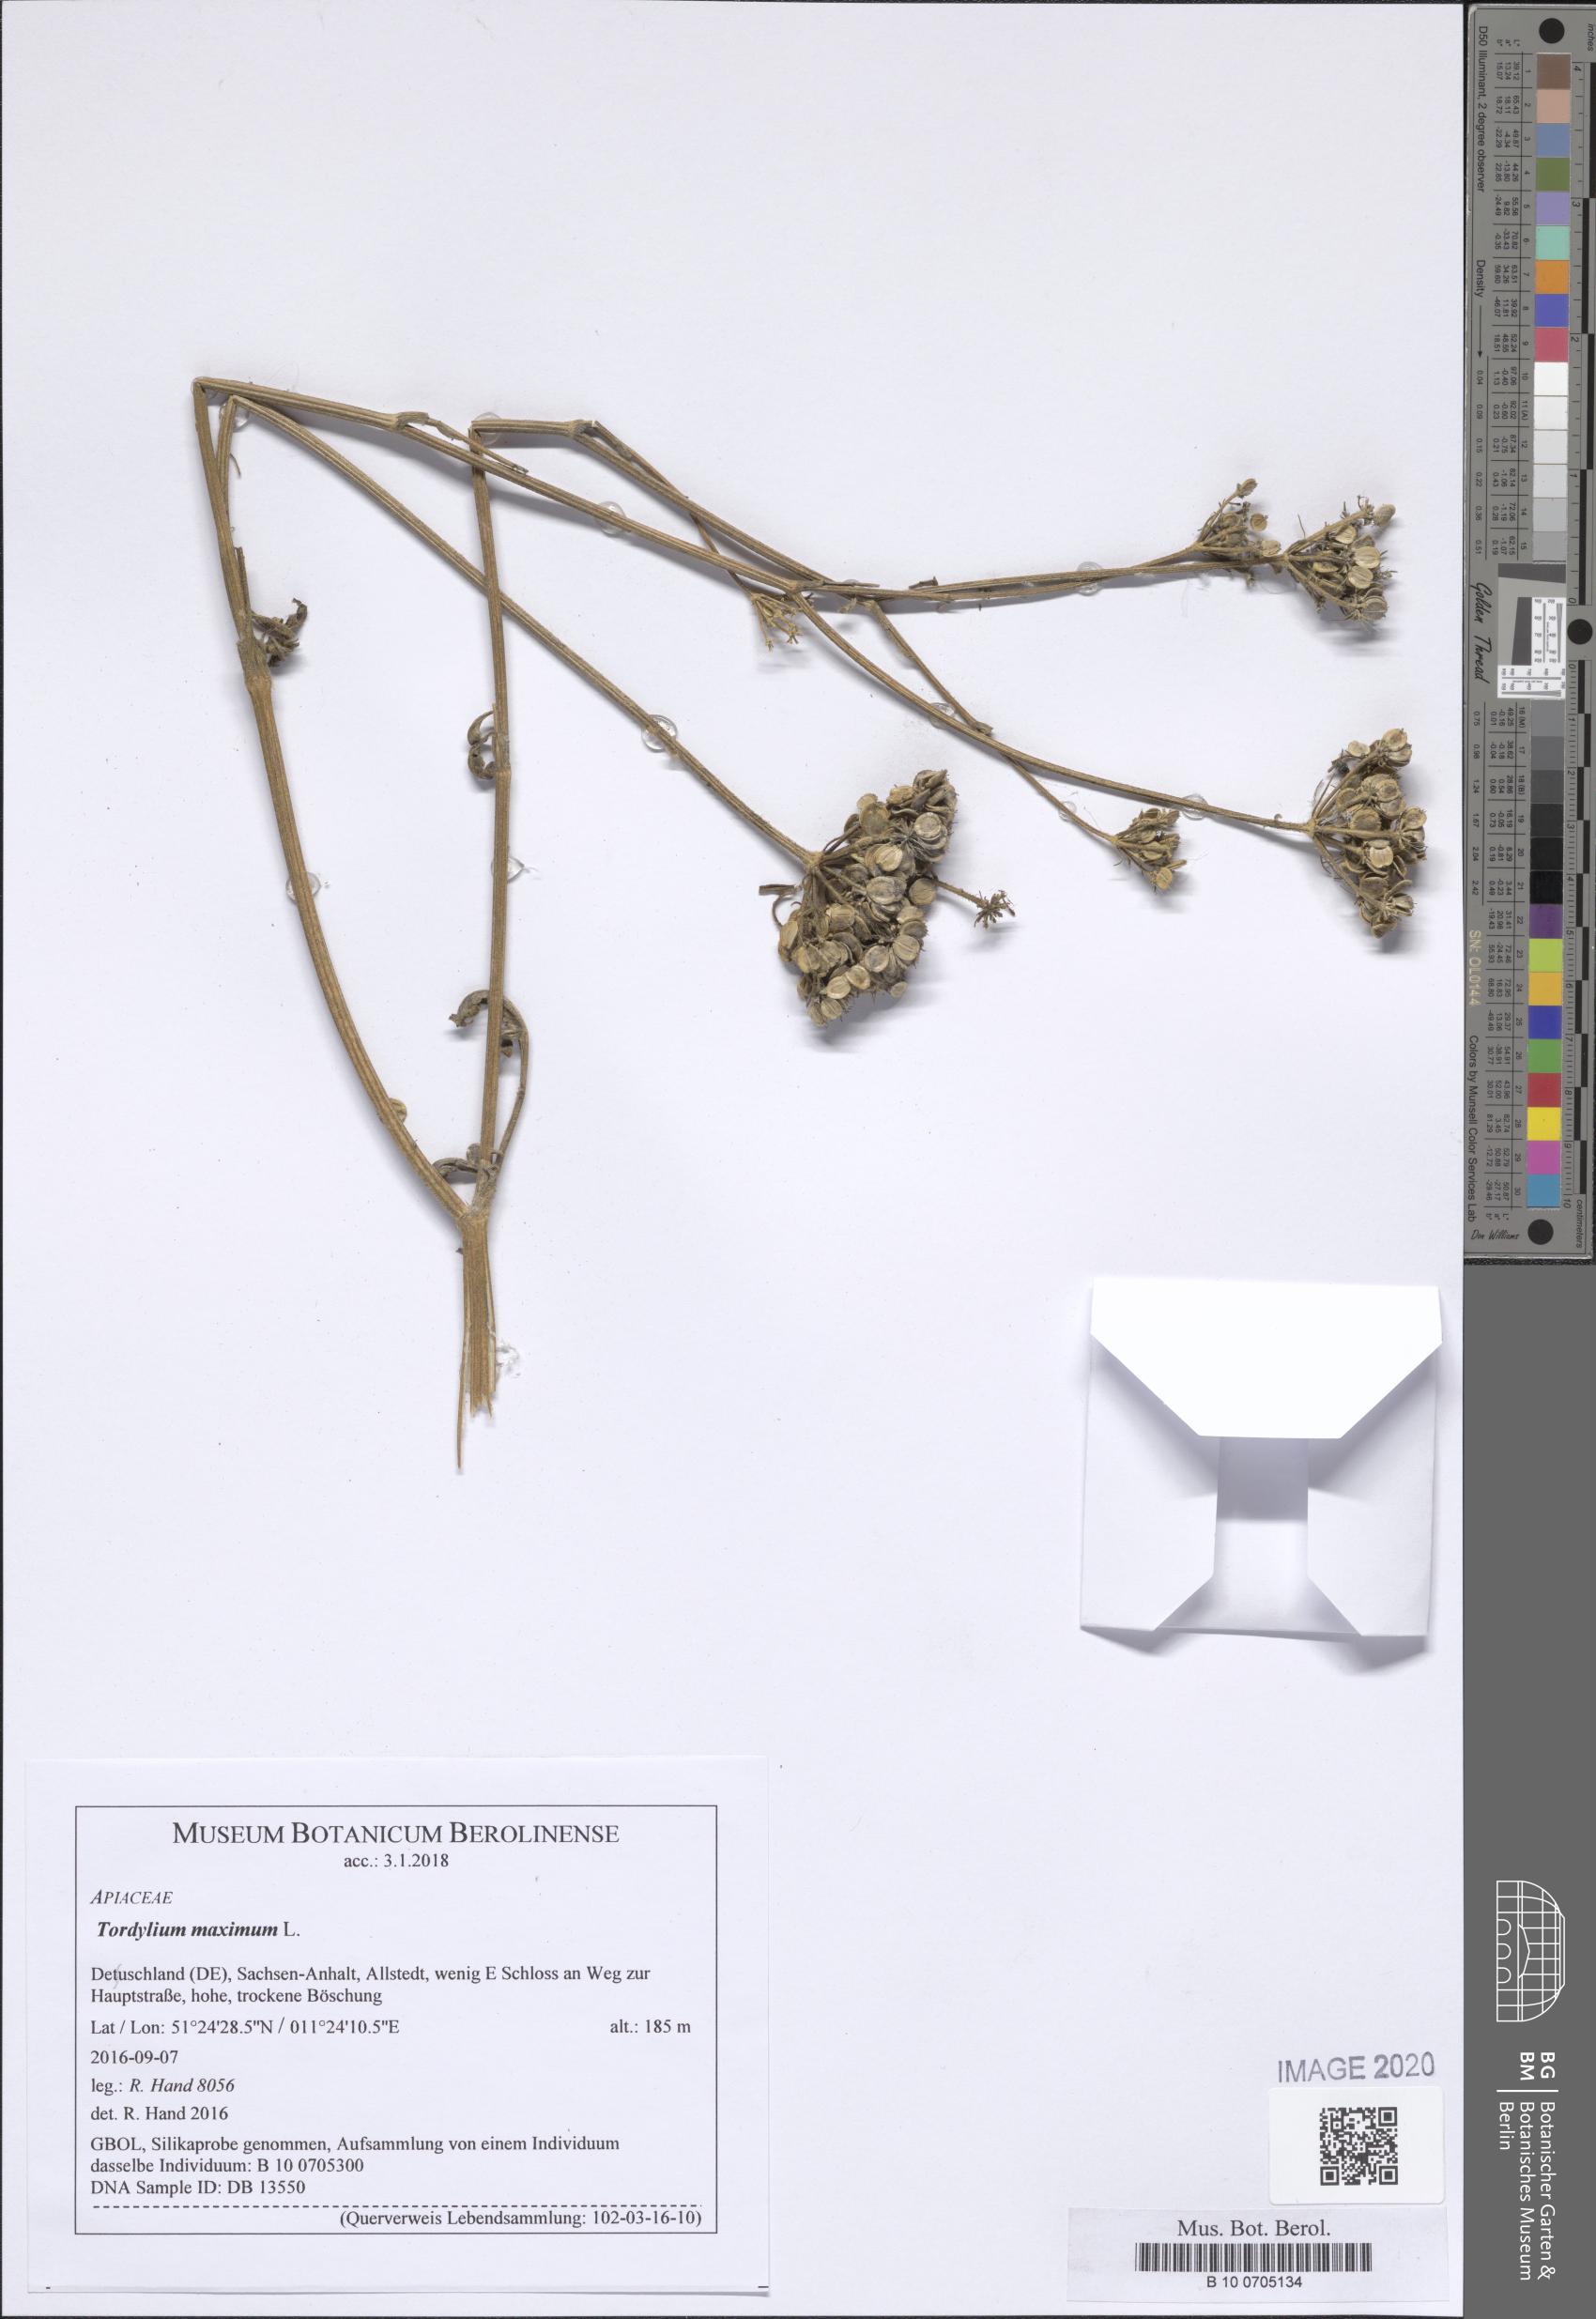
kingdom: Plantae
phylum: Tracheophyta
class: Magnoliopsida
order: Apiales
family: Apiaceae
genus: Tordylium
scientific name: Tordylium maximum
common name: Hartwort
